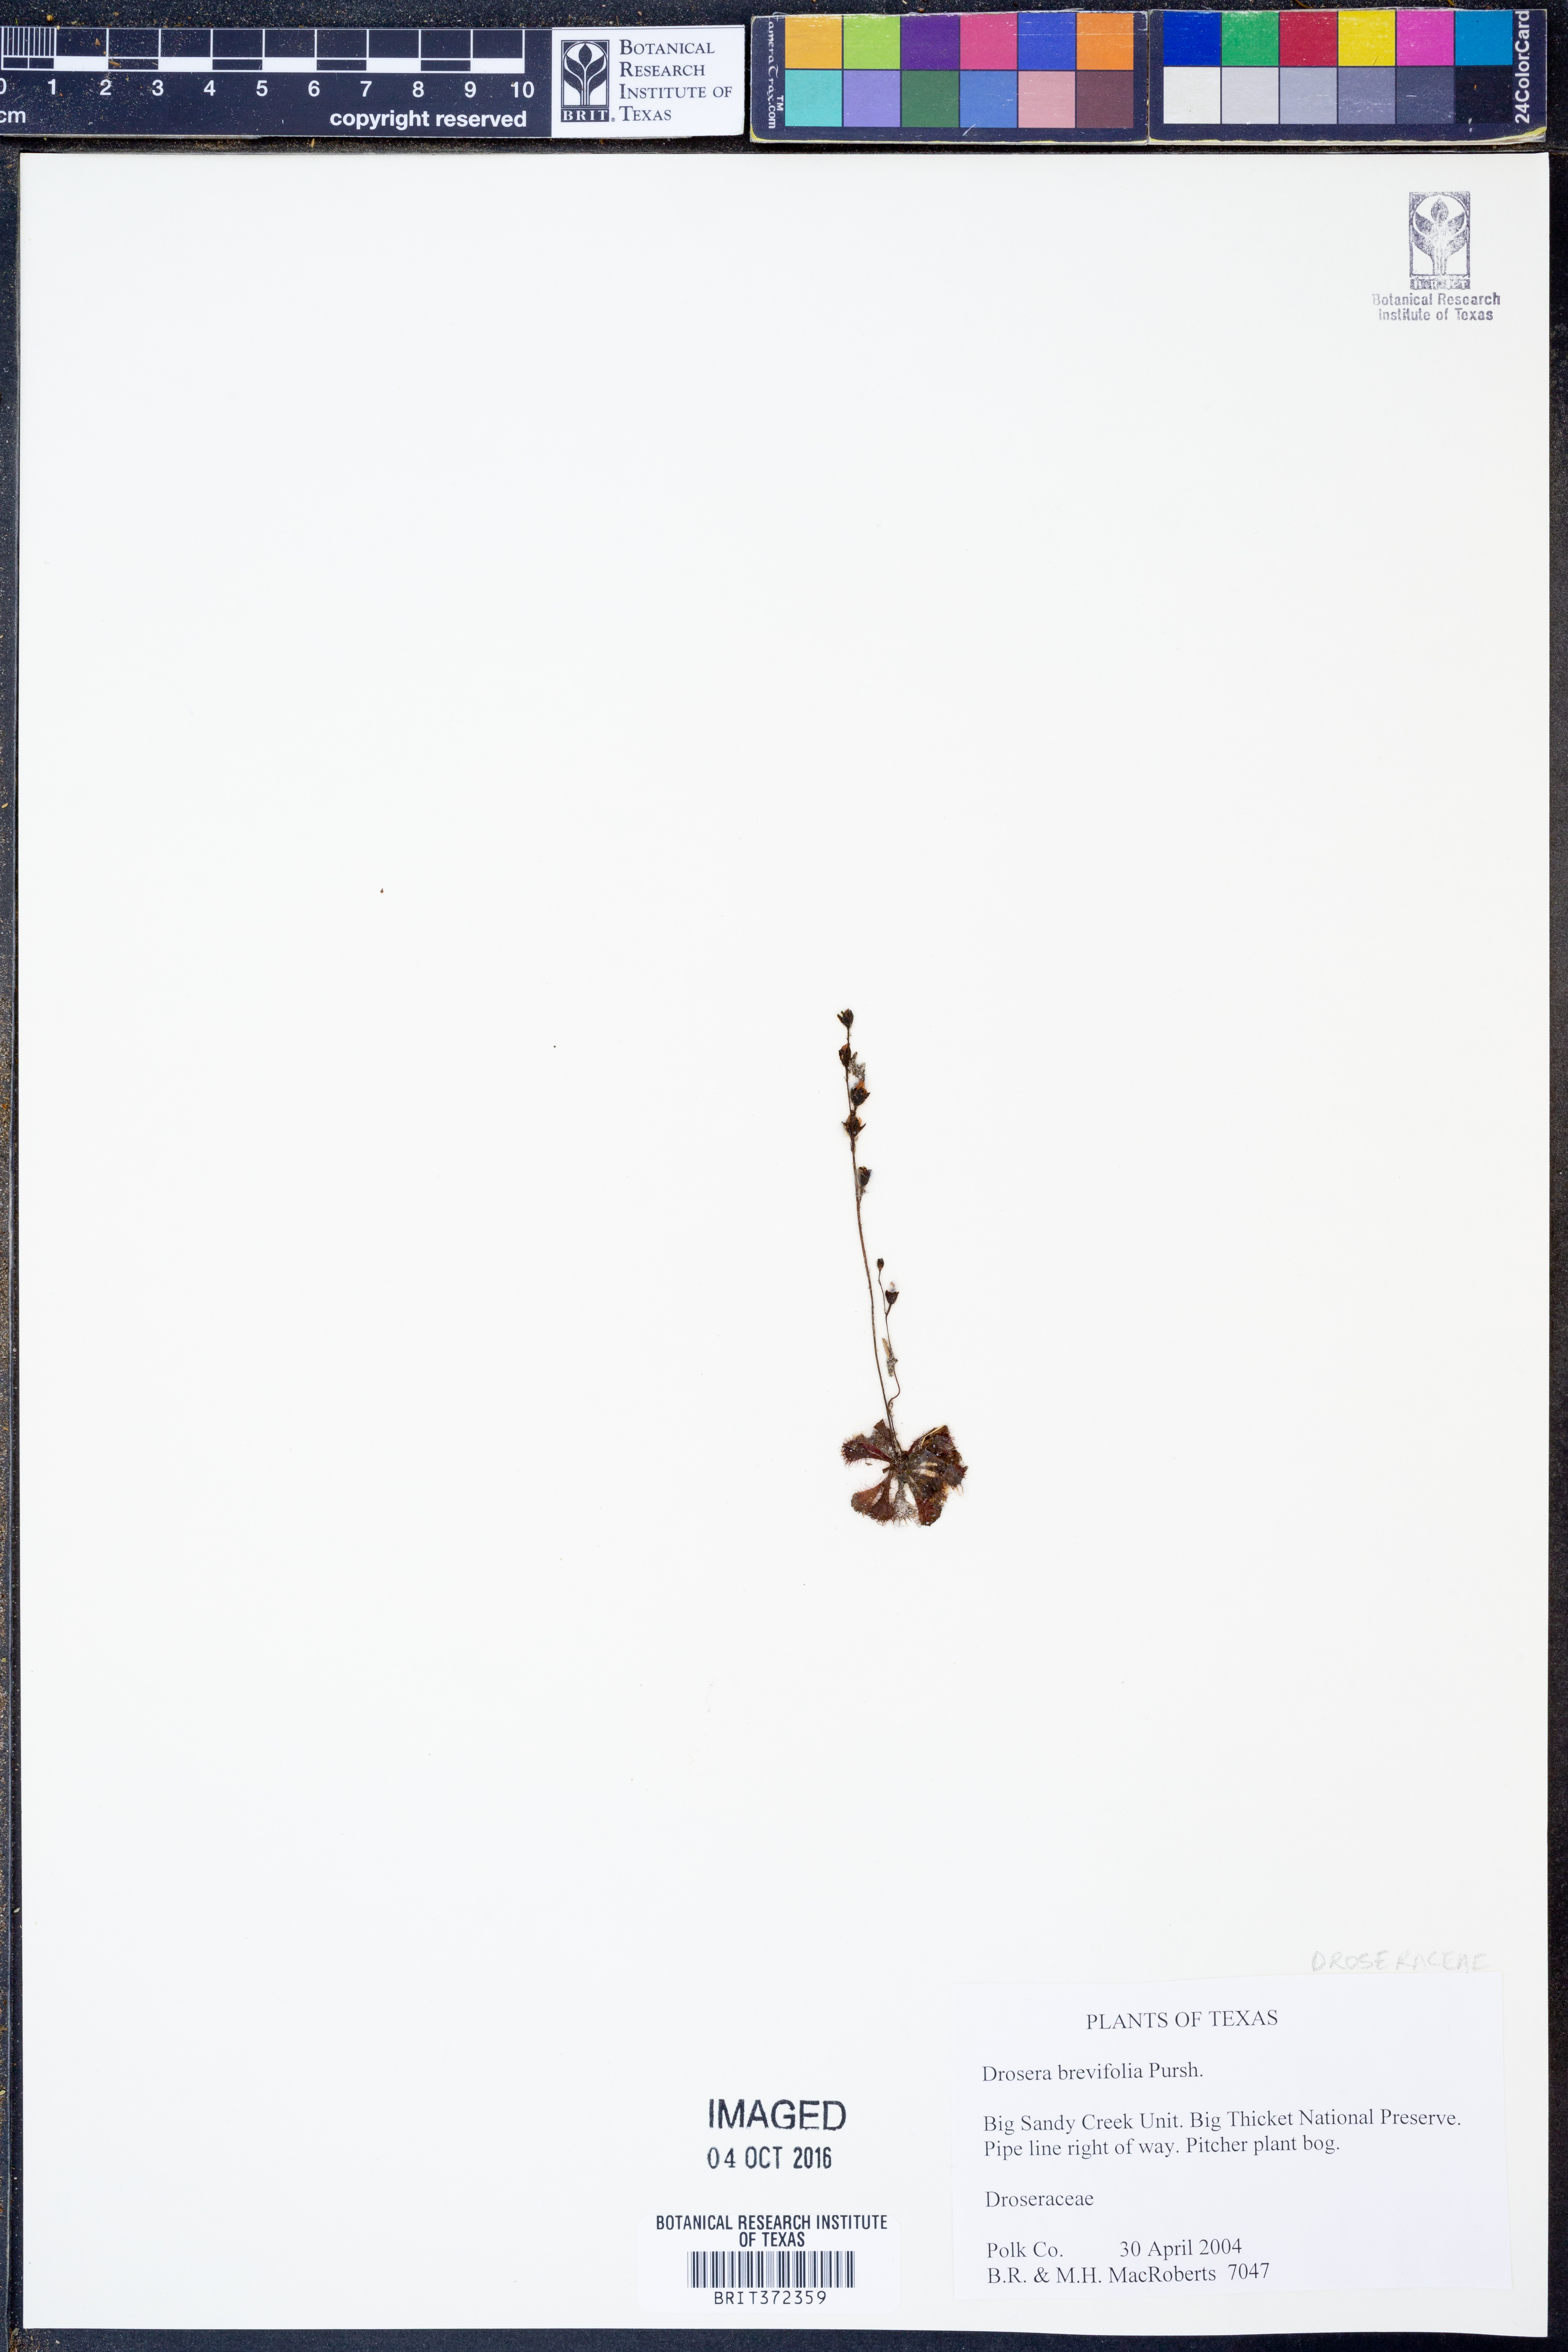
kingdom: Plantae
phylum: Tracheophyta
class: Magnoliopsida
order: Caryophyllales
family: Droseraceae
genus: Drosera
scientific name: Drosera brevifolia
